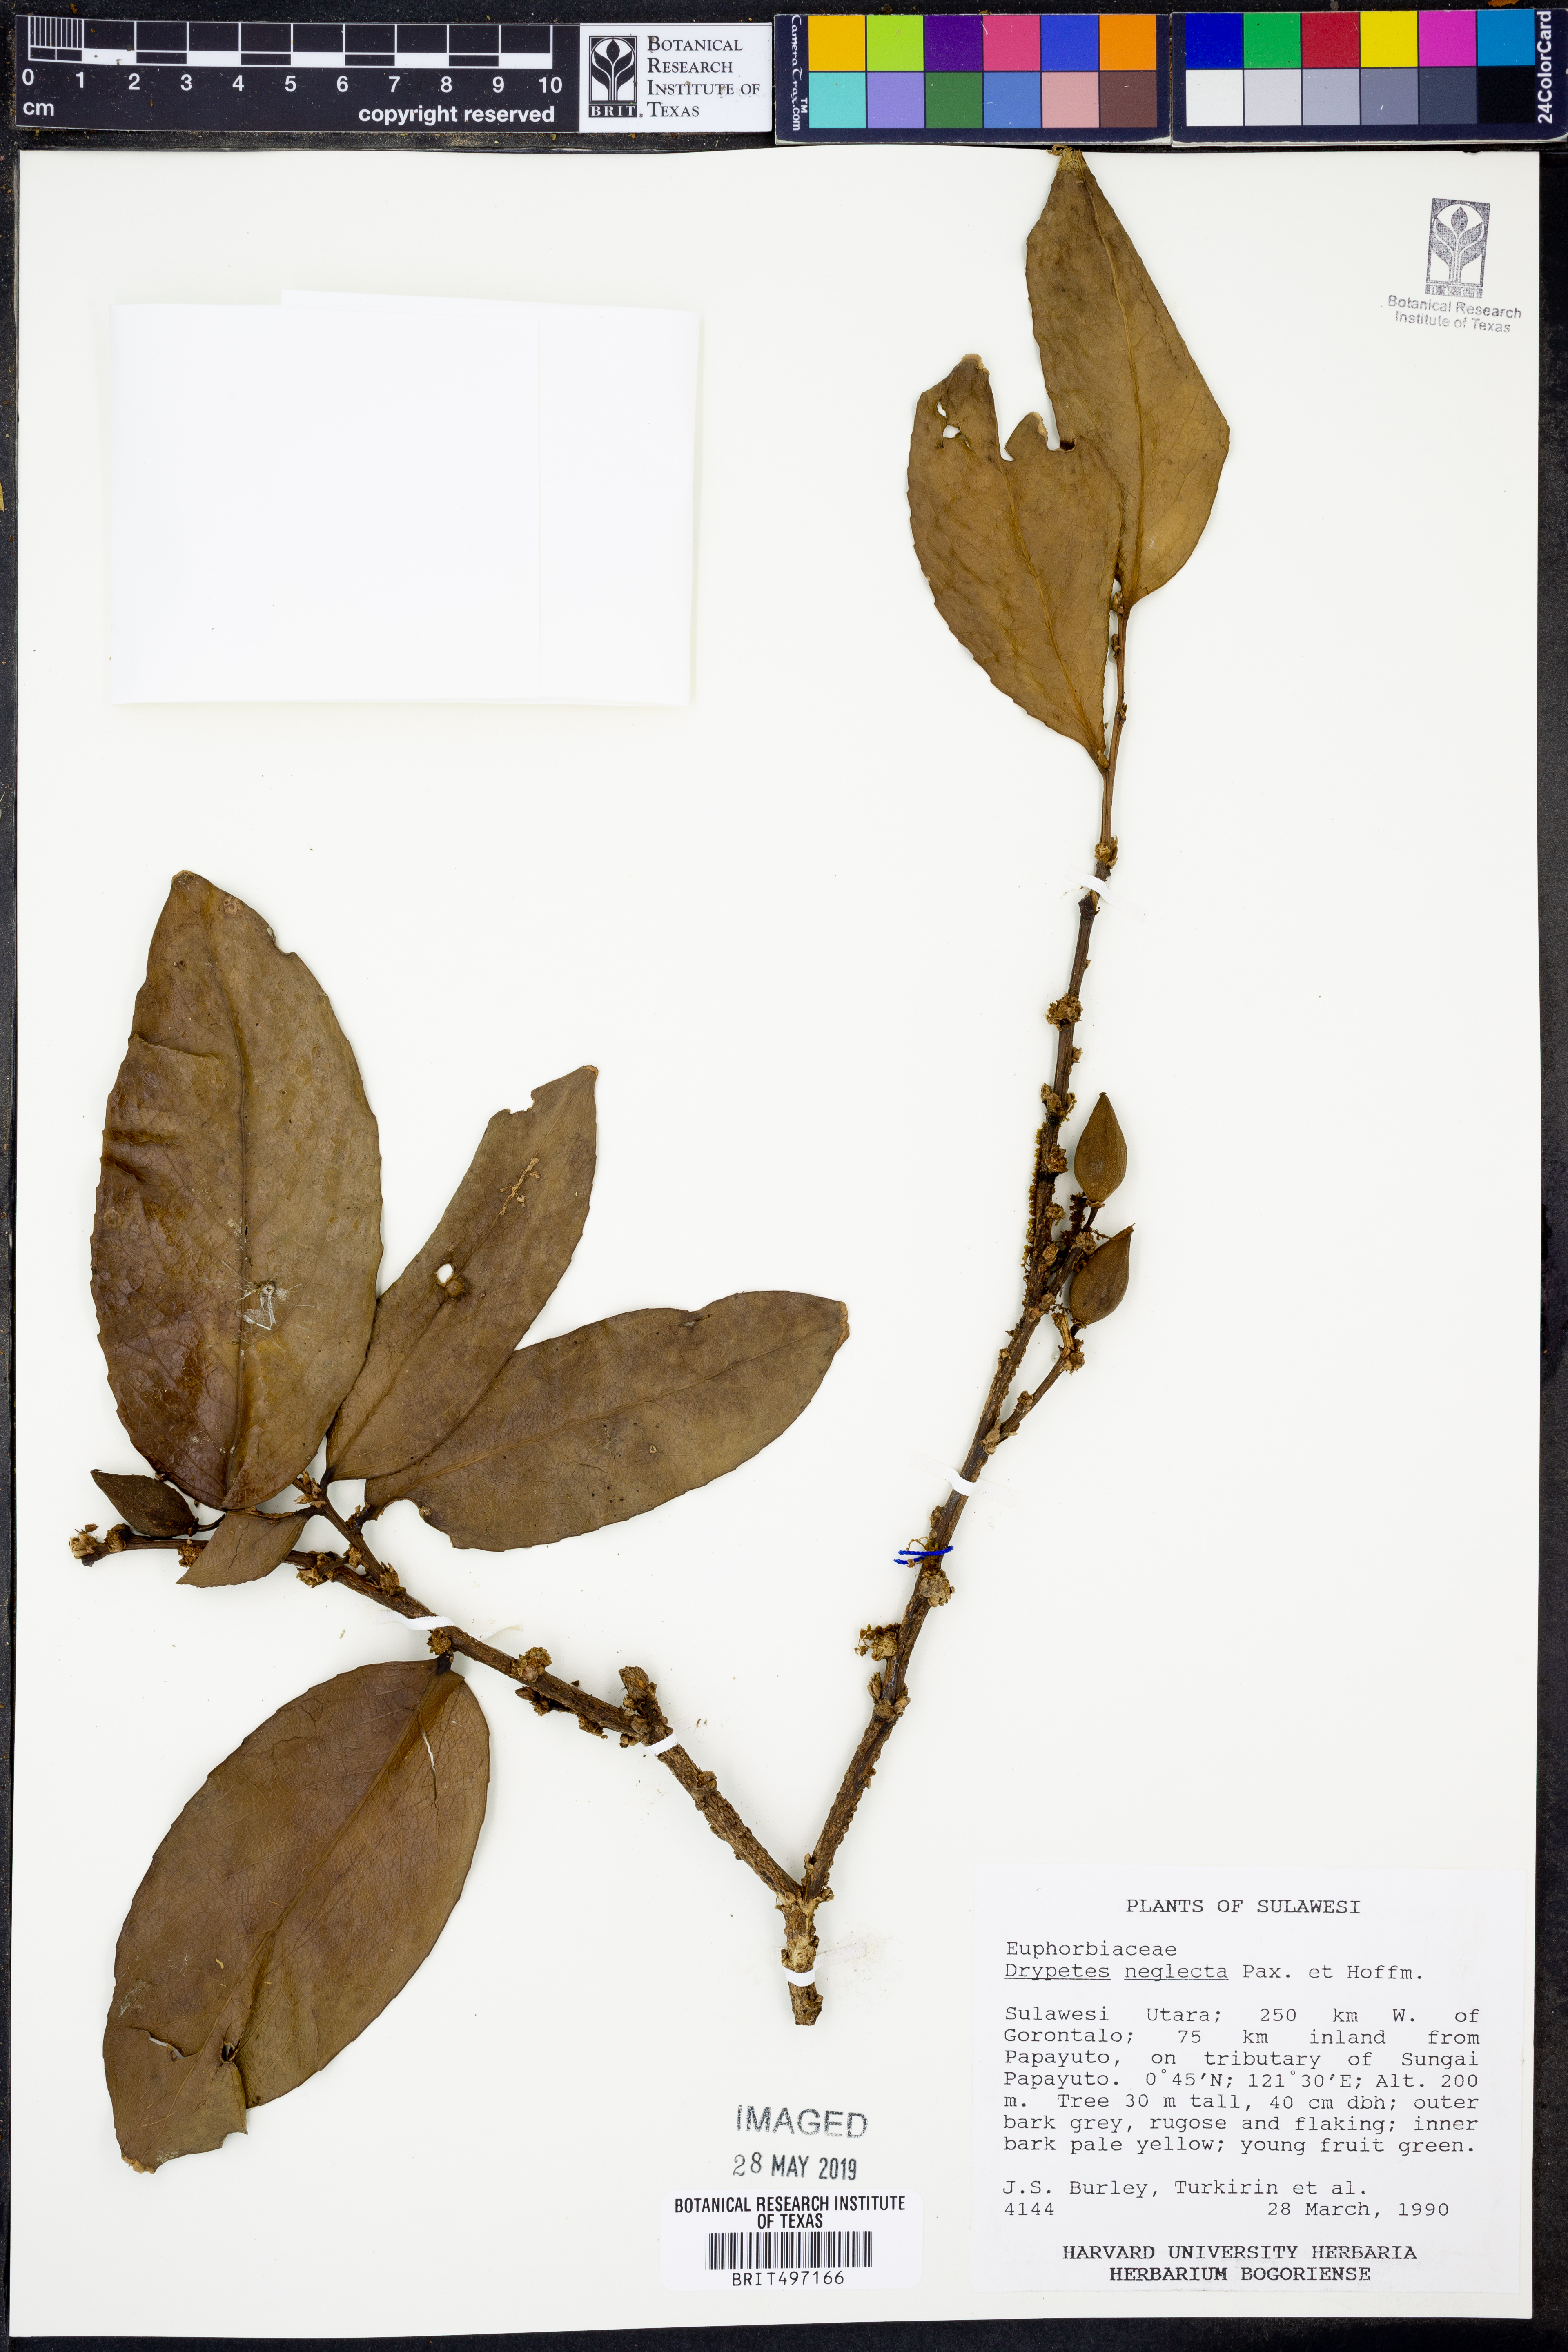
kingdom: Plantae
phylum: Tracheophyta
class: Magnoliopsida
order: Malpighiales
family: Putranjivaceae
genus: Drypetes
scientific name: Drypetes neglecta
